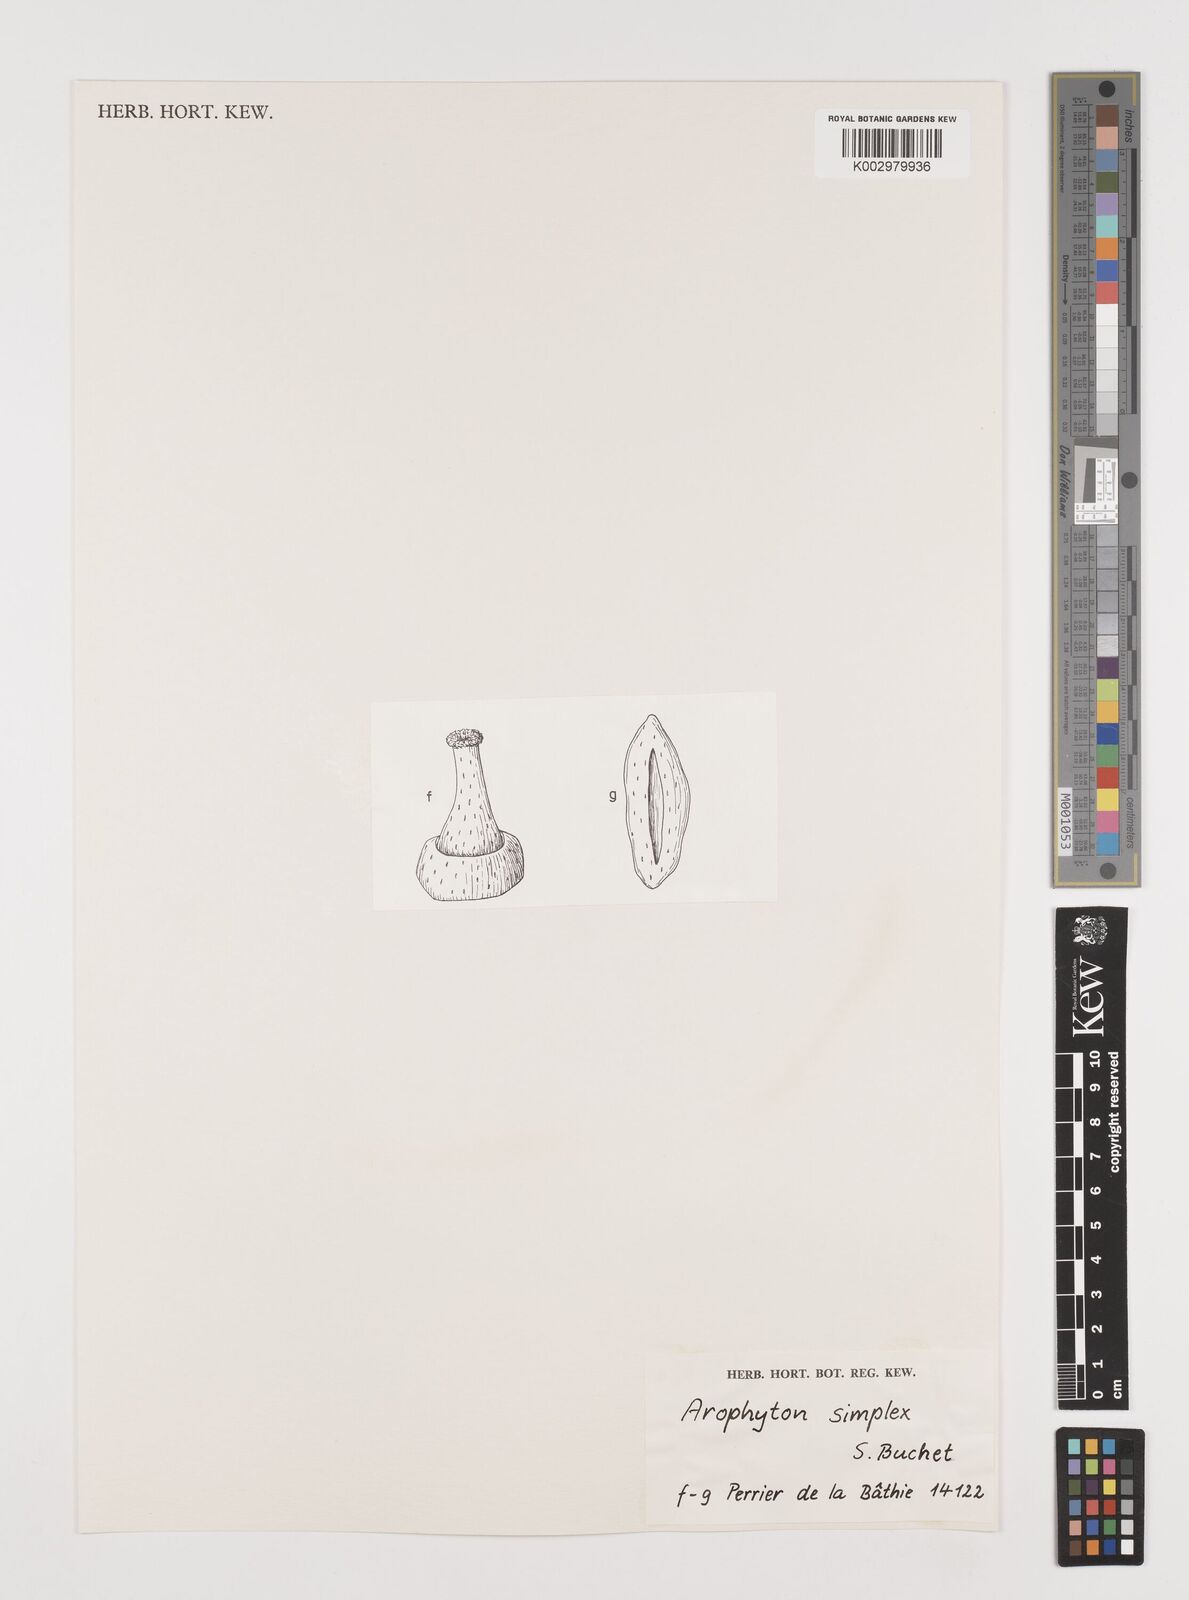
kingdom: Plantae
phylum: Tracheophyta
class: Liliopsida
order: Alismatales
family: Araceae
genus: Arophyton
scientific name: Arophyton simplex
